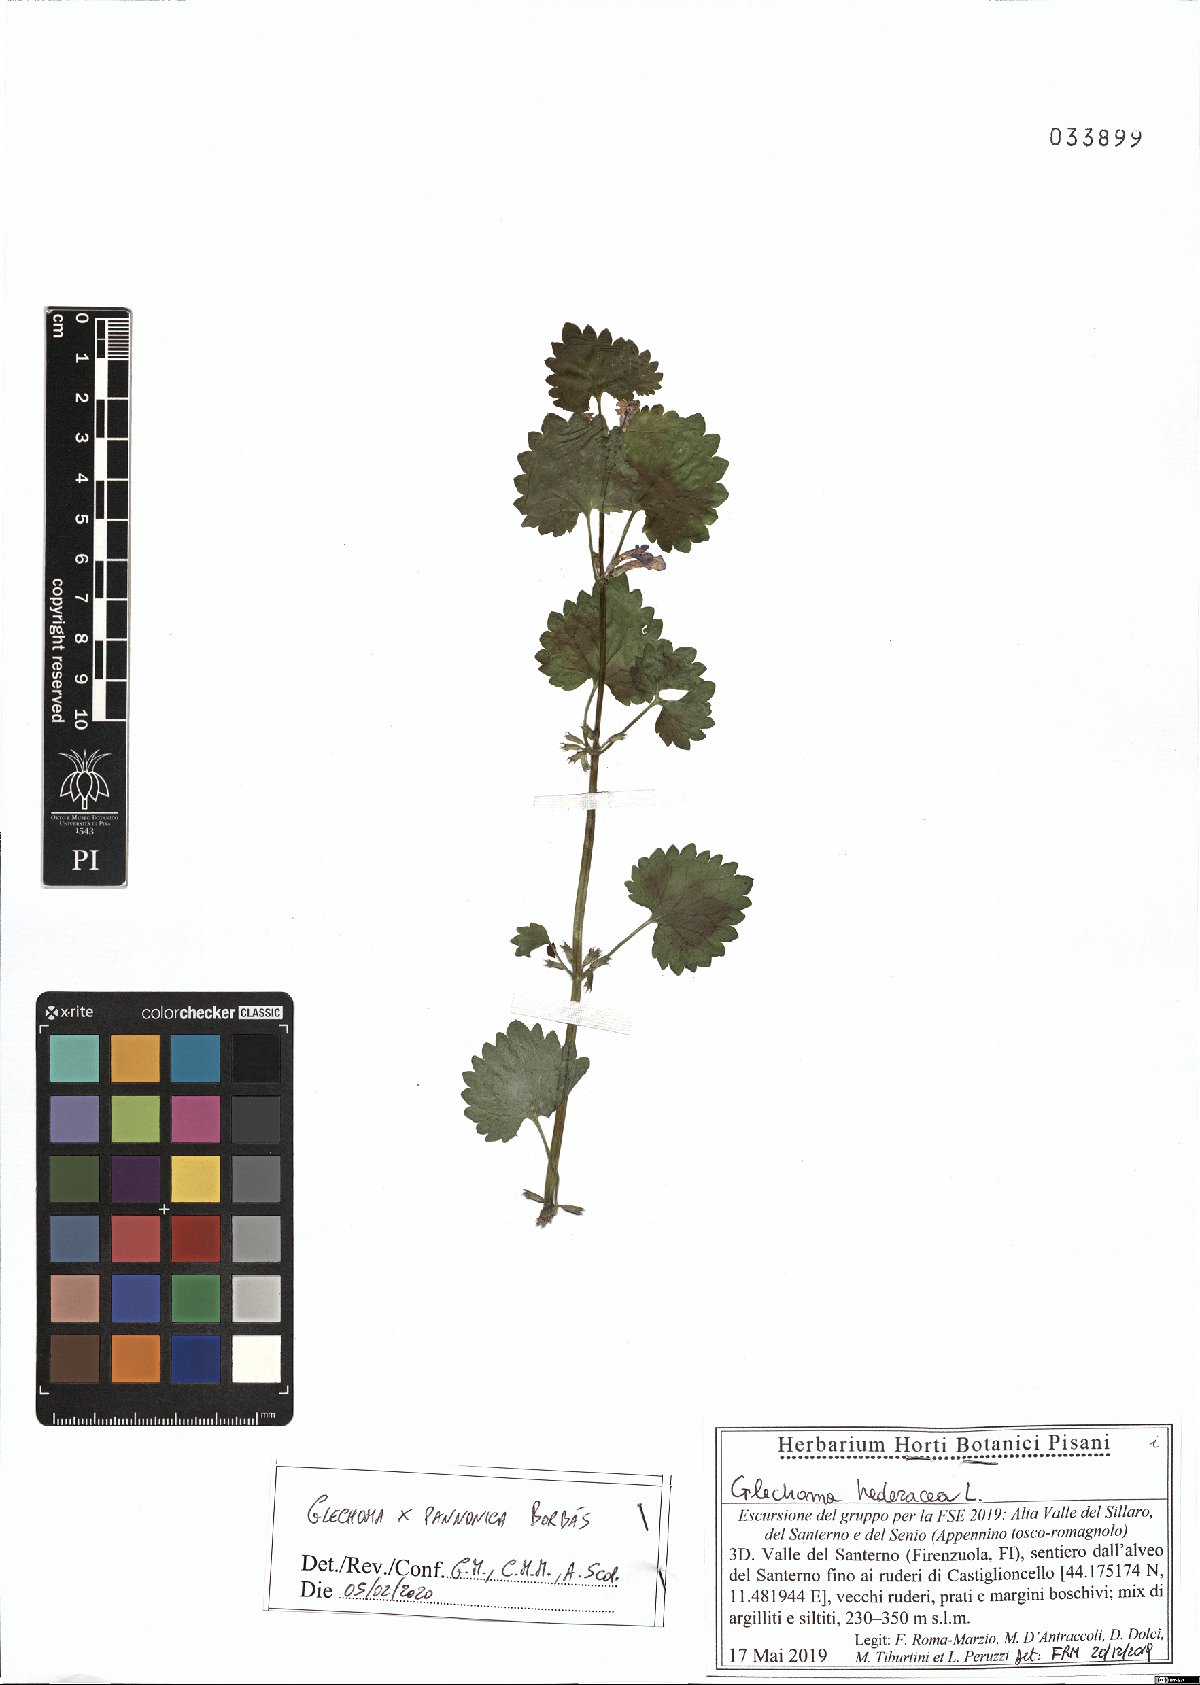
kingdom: Plantae
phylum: Tracheophyta
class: Magnoliopsida
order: Lamiales
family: Lamiaceae
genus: Glechoma
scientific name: Glechoma pannonica
